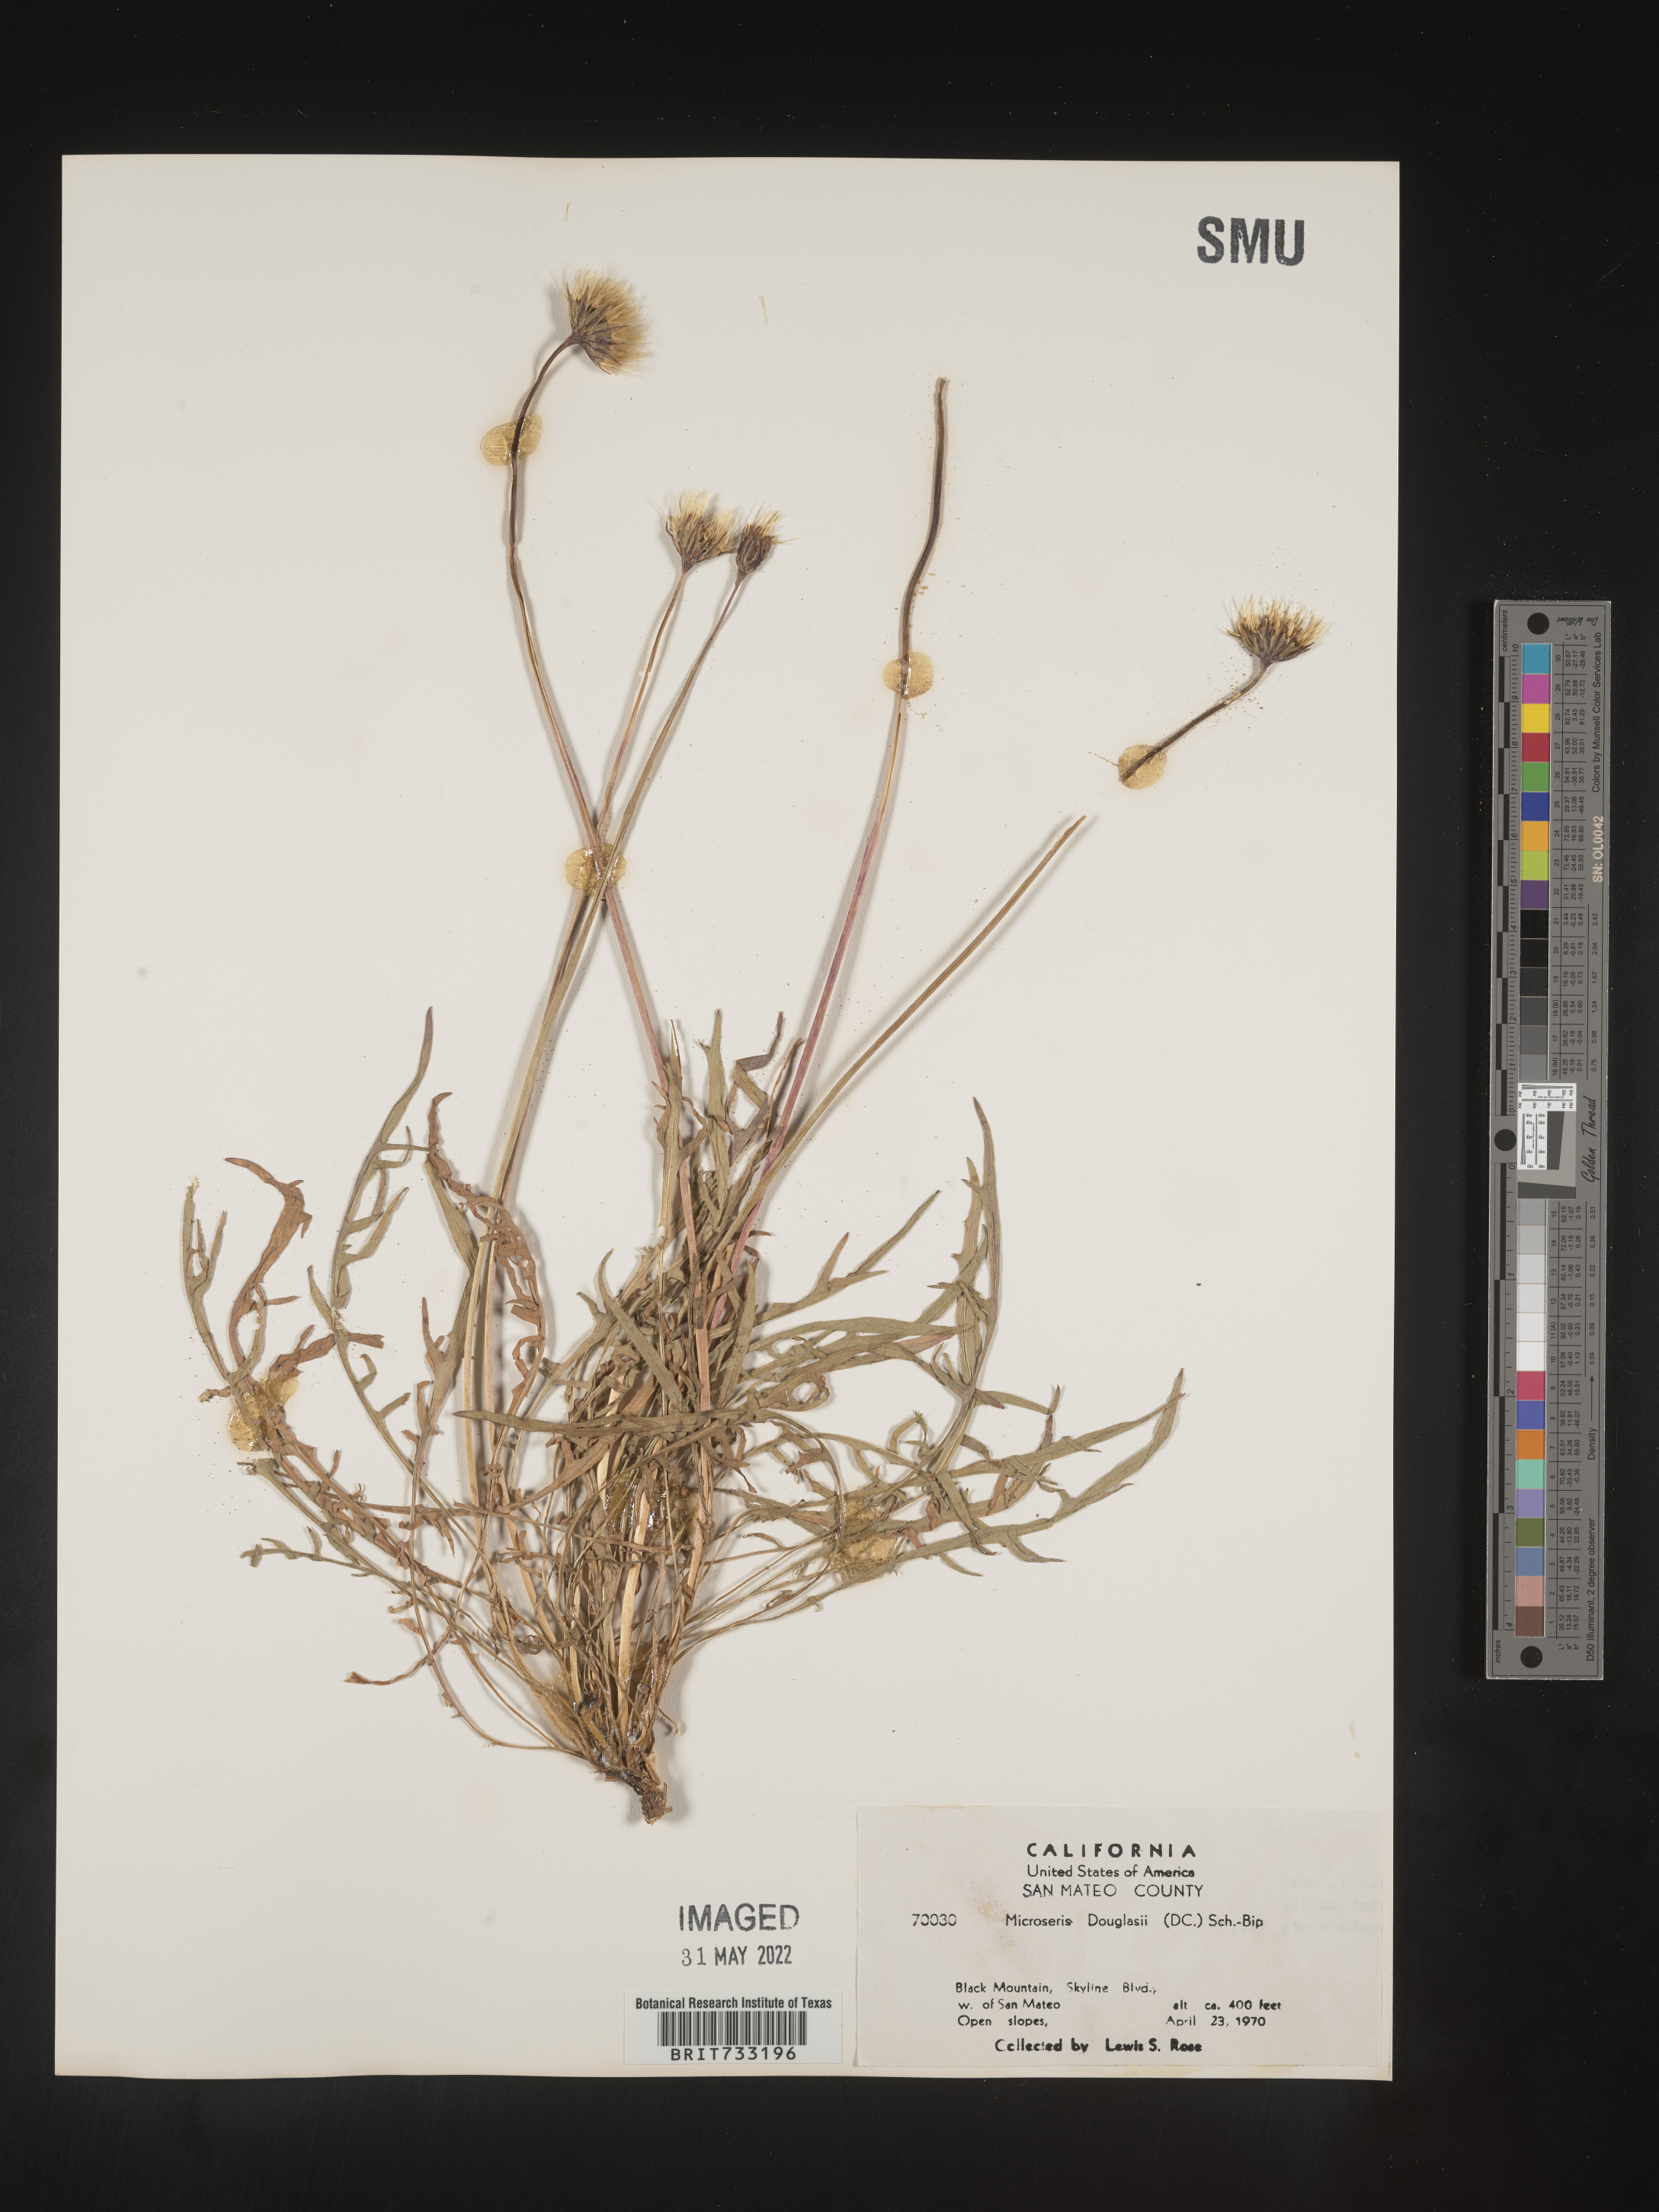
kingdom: Plantae
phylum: Tracheophyta
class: Magnoliopsida
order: Asterales
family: Asteraceae
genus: Microseris
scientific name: Microseris douglasii
